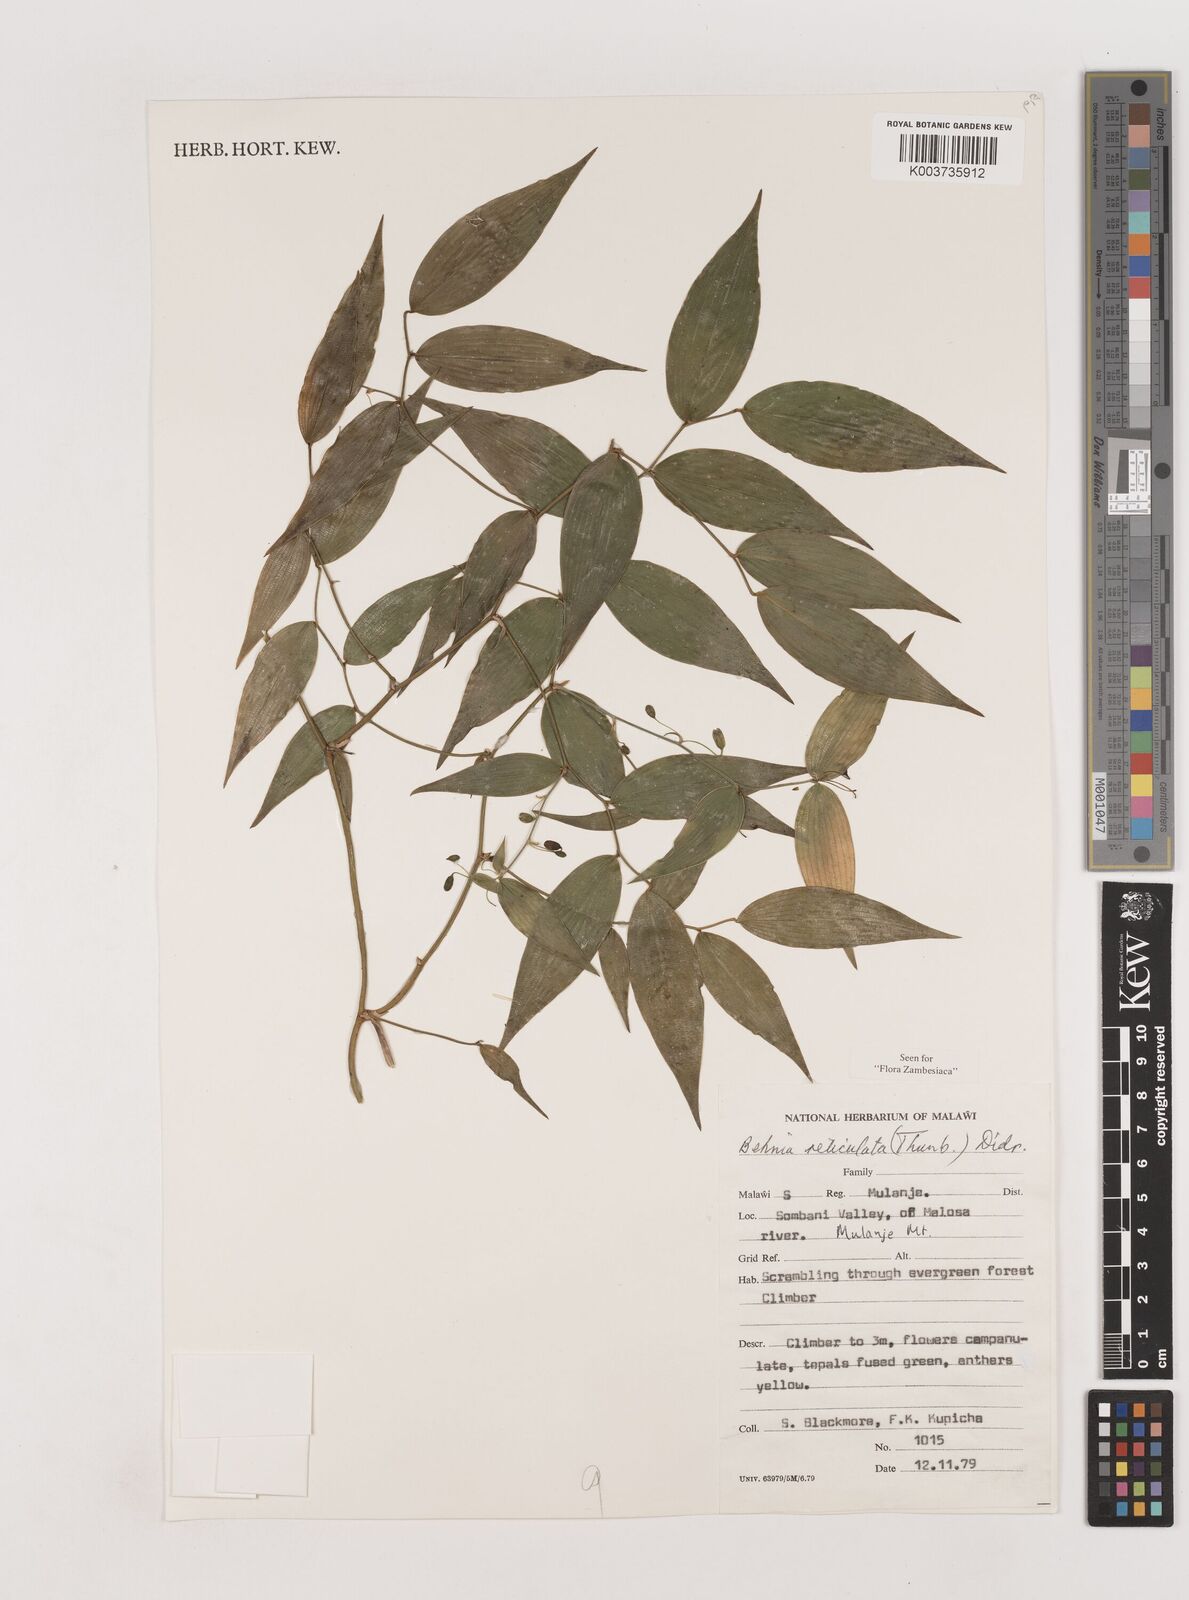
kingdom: Plantae
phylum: Tracheophyta
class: Liliopsida
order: Asparagales
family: Asparagaceae
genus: Behnia
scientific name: Behnia reticulata
